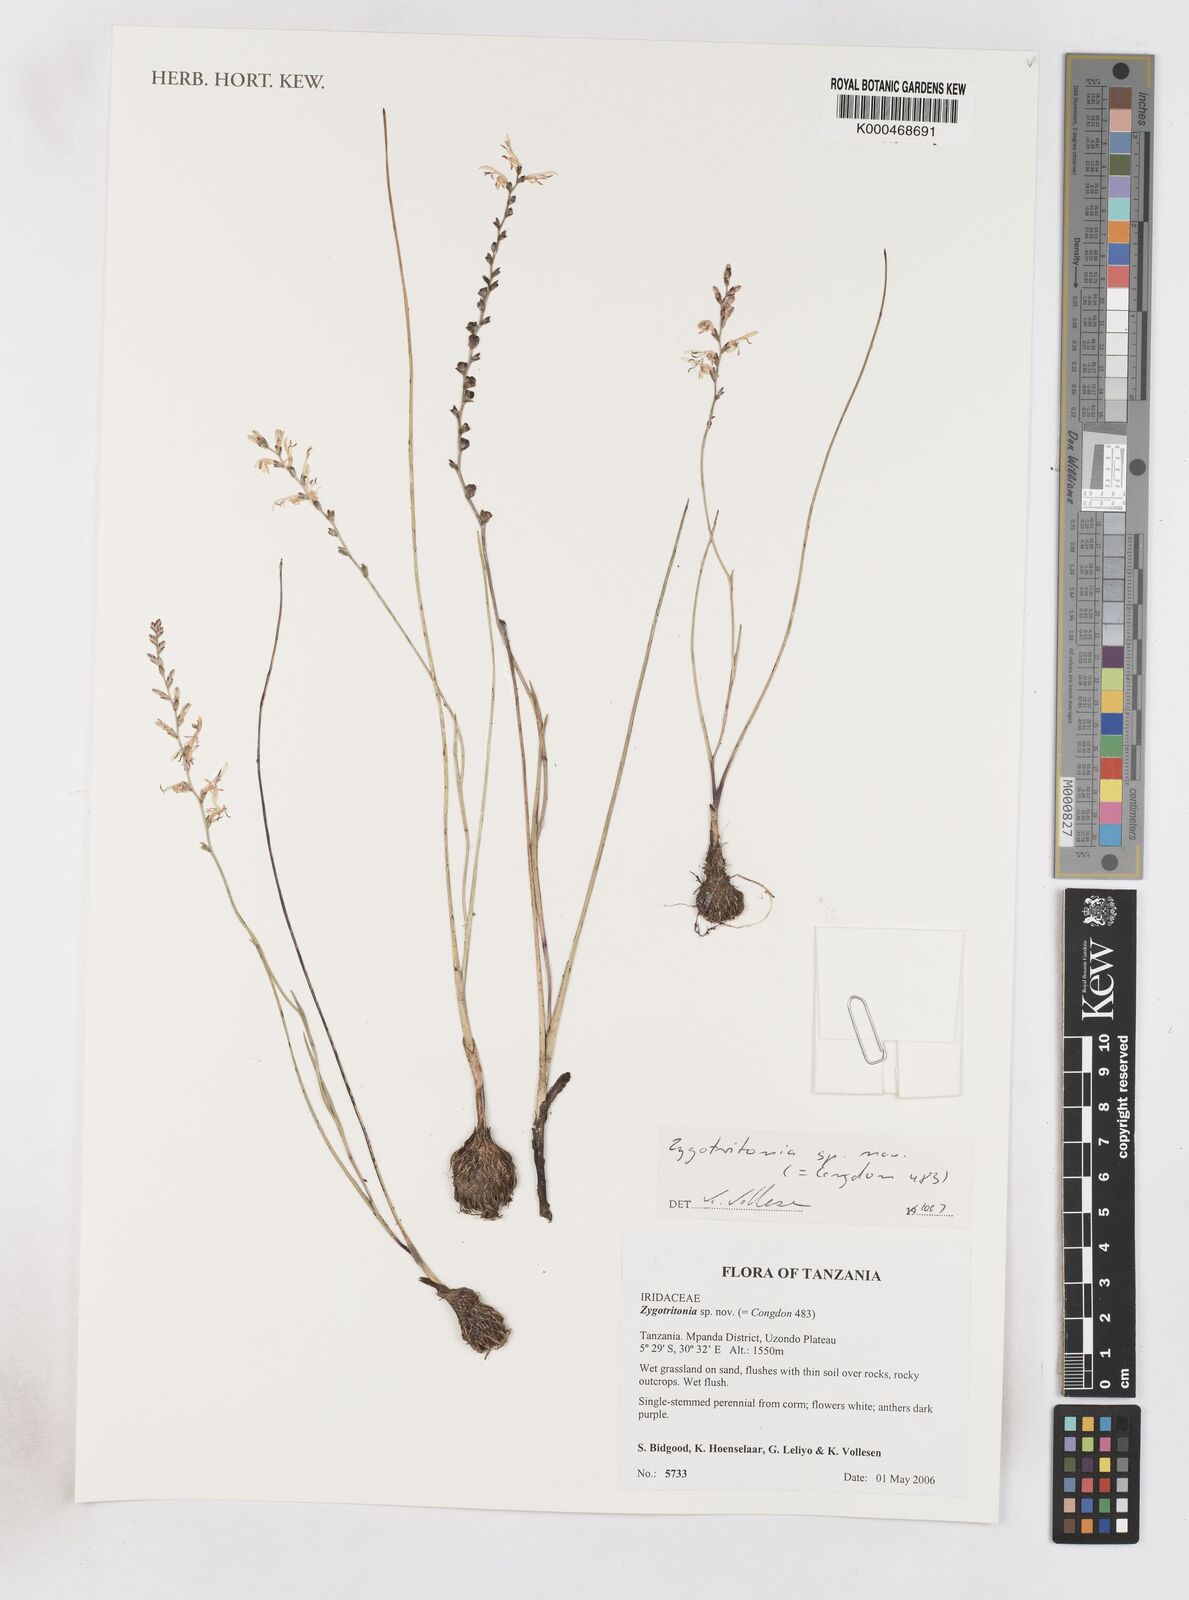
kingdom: Plantae
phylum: Tracheophyta
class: Liliopsida
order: Asparagales
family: Iridaceae
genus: Zygotritonia
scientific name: Zygotritonia
